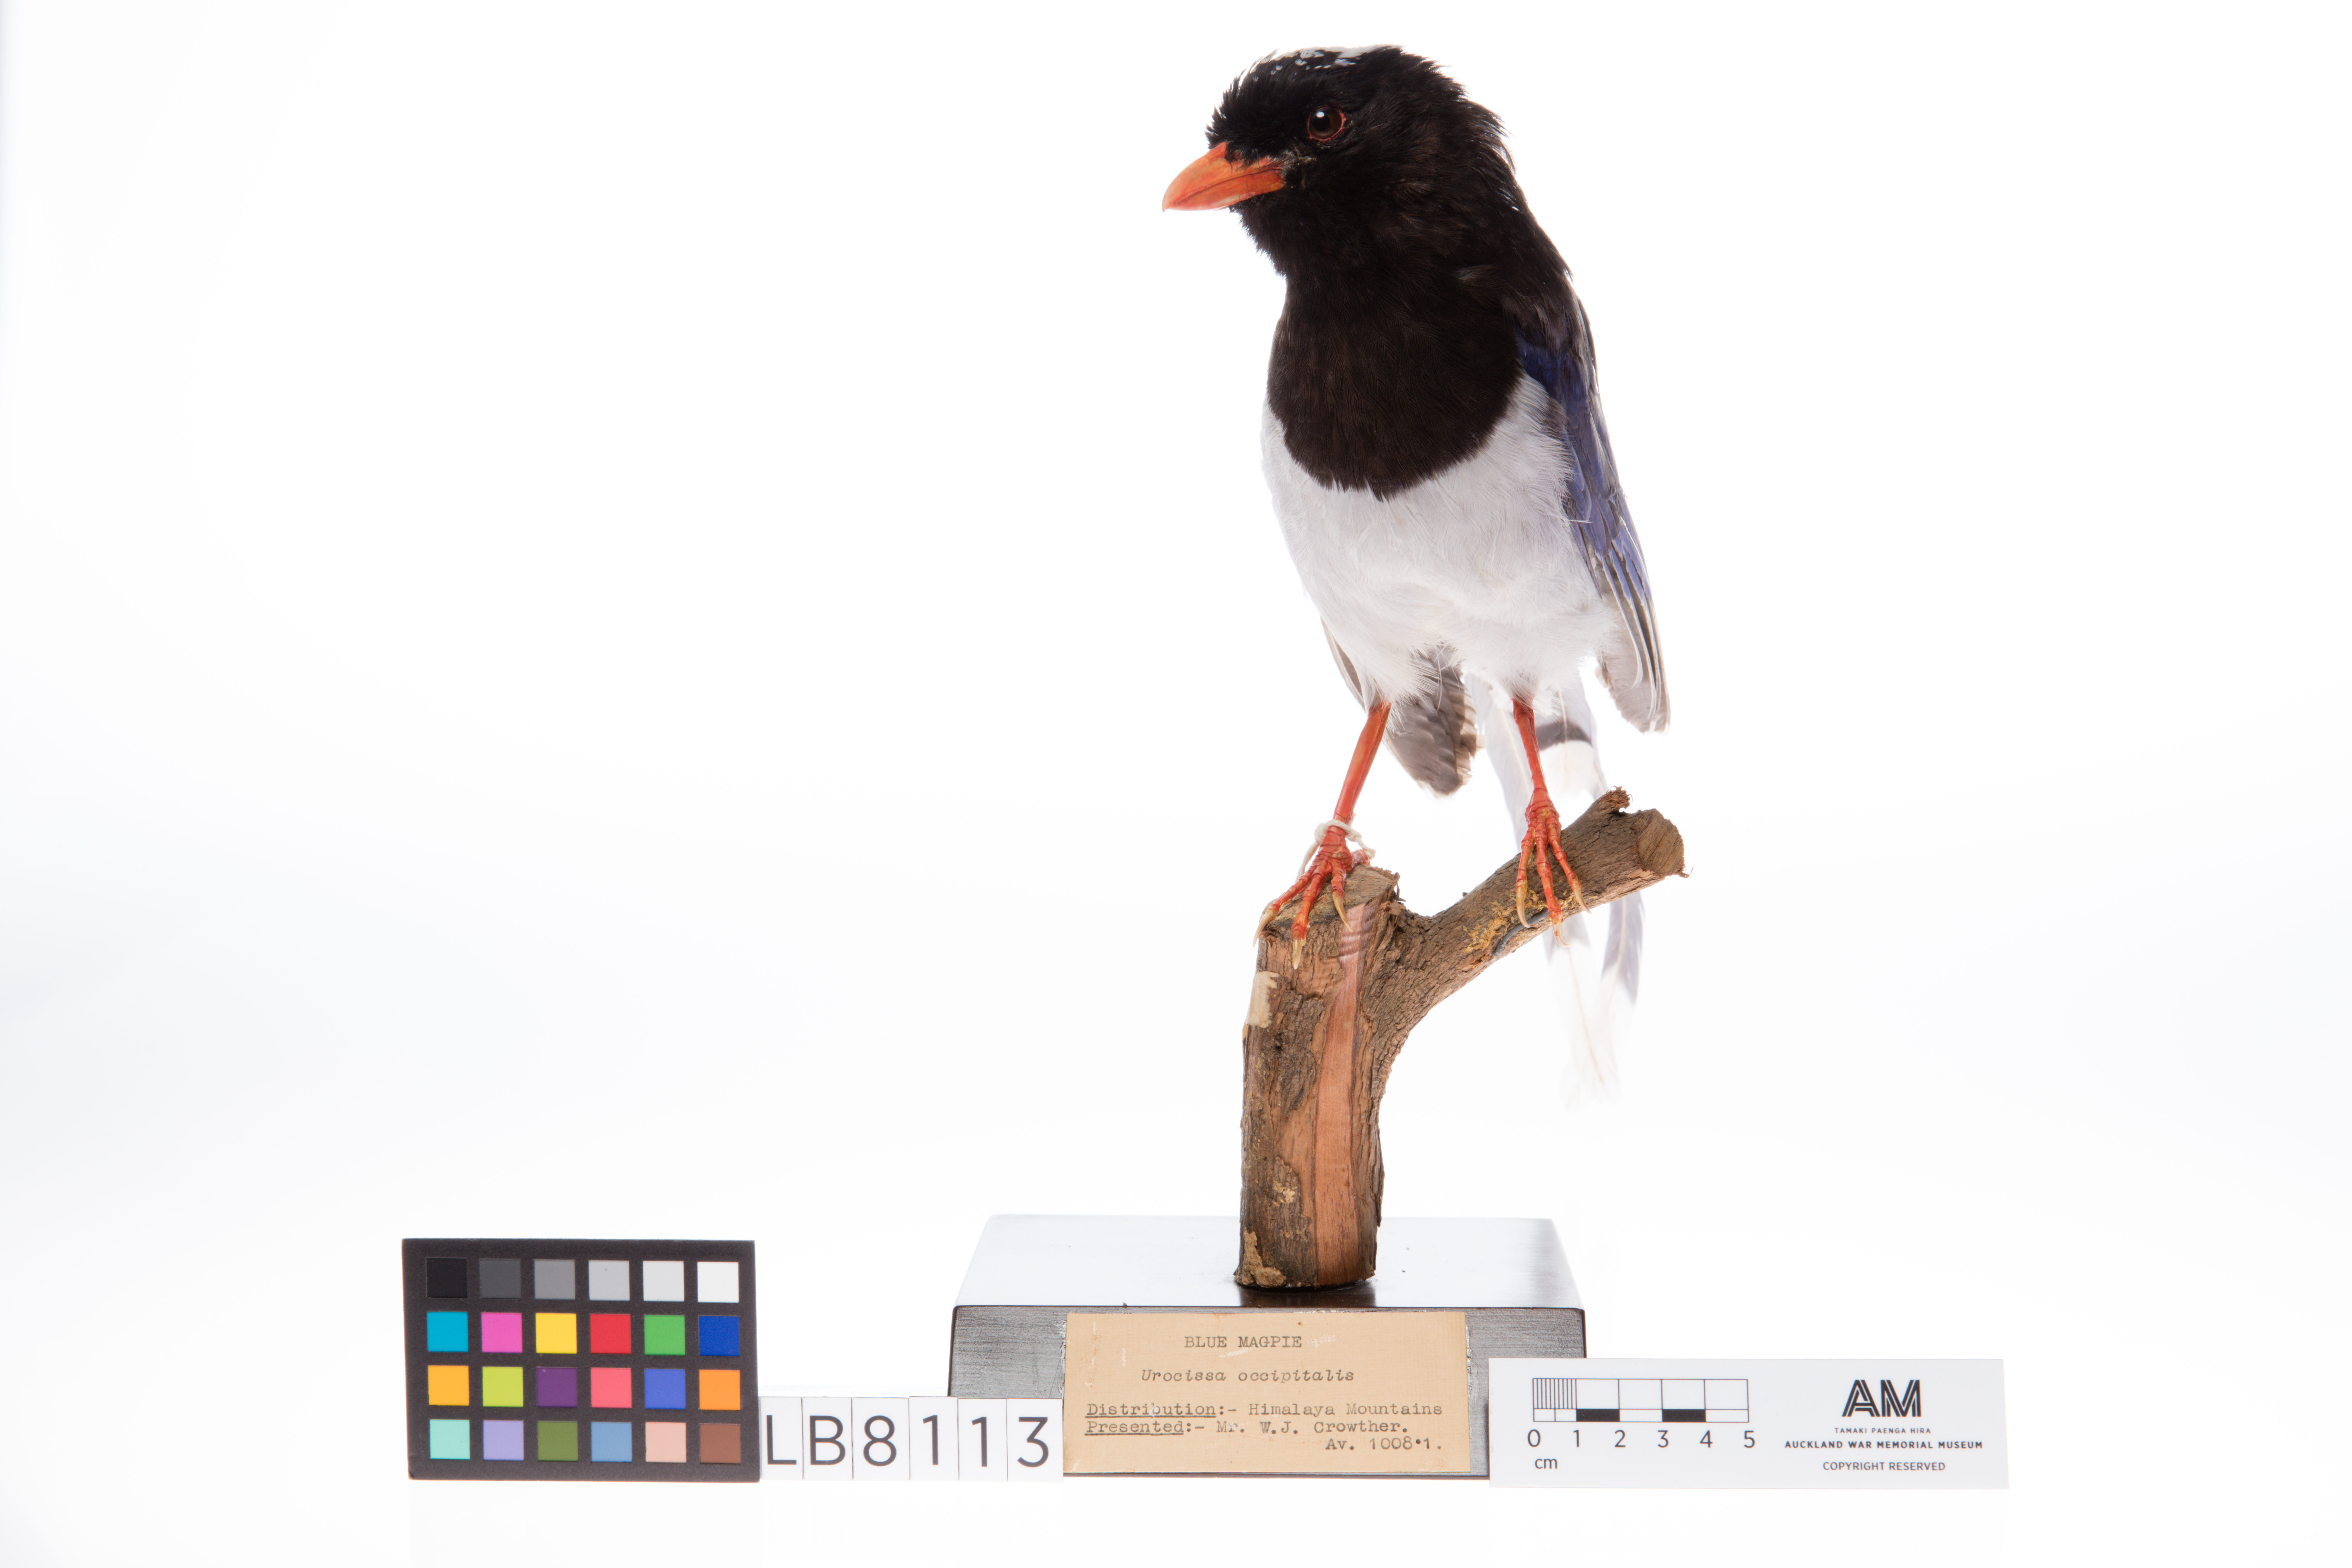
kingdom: Animalia
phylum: Chordata
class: Aves
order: Passeriformes
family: Corvidae
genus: Urocissa
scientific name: Urocissa erythroryncha
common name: Red-billed blue magpie
